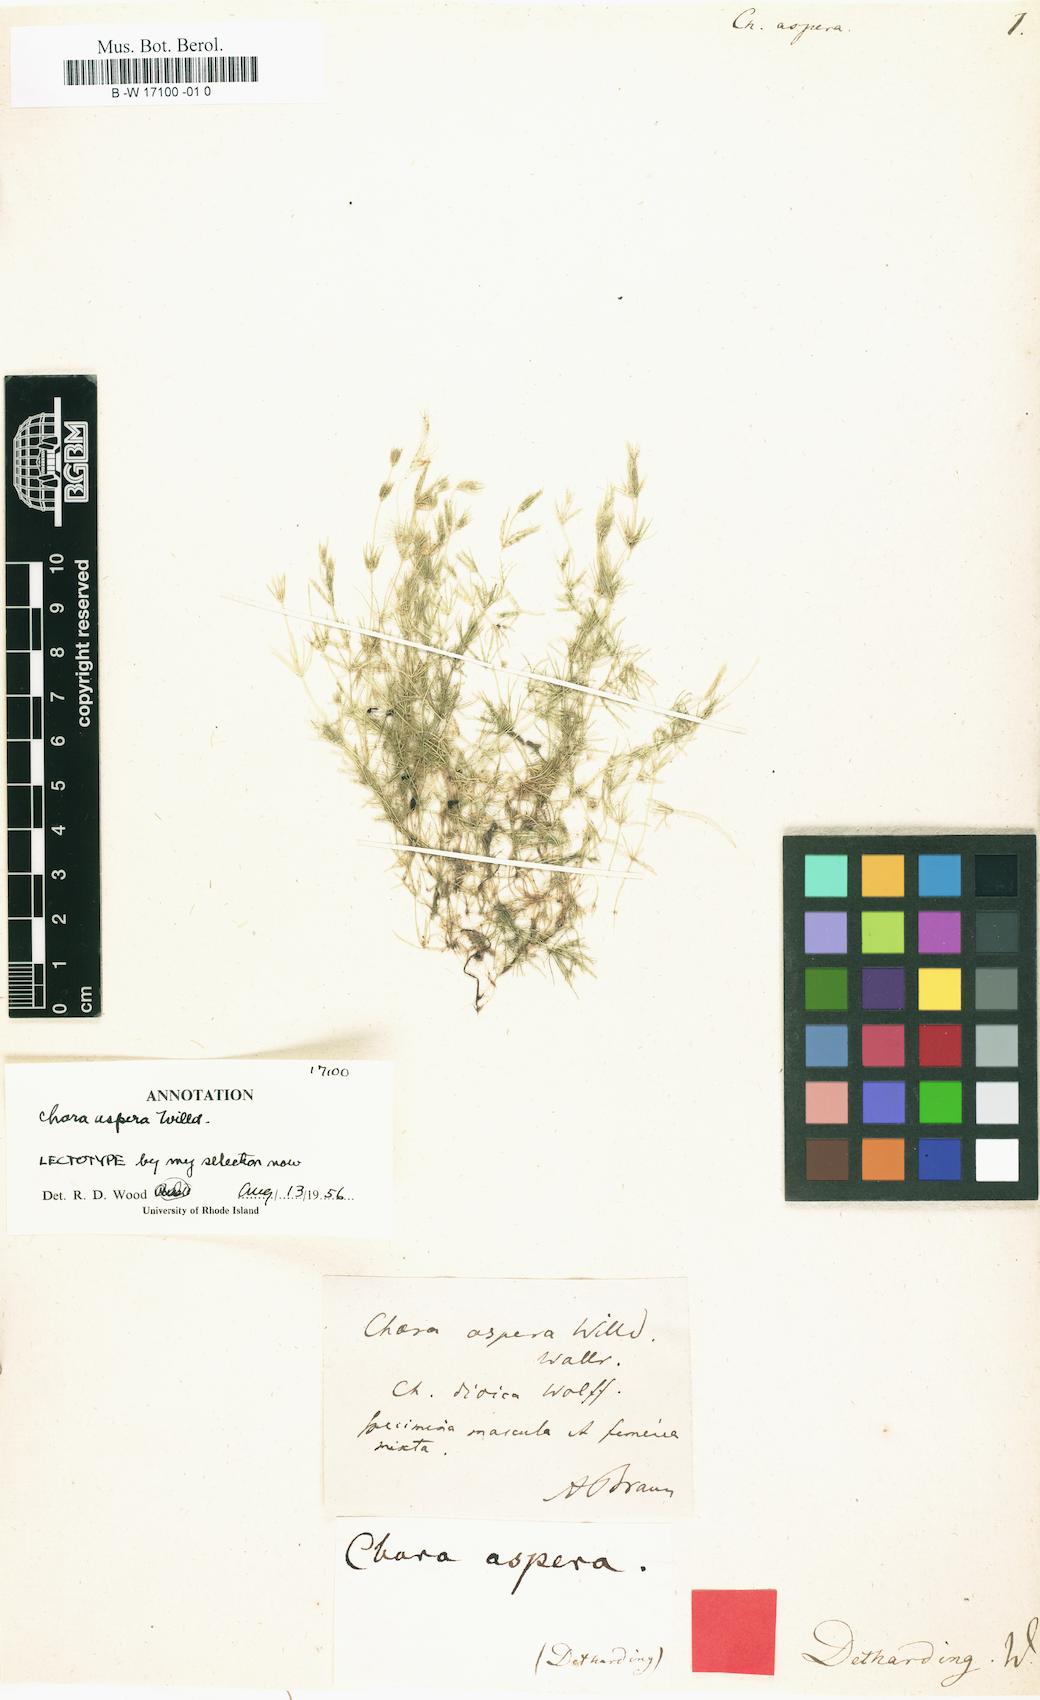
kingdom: Plantae
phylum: Charophyta
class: Charophyceae
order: Charales
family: Characeae
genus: Chara
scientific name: Chara aspera
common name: Rough stonewort
